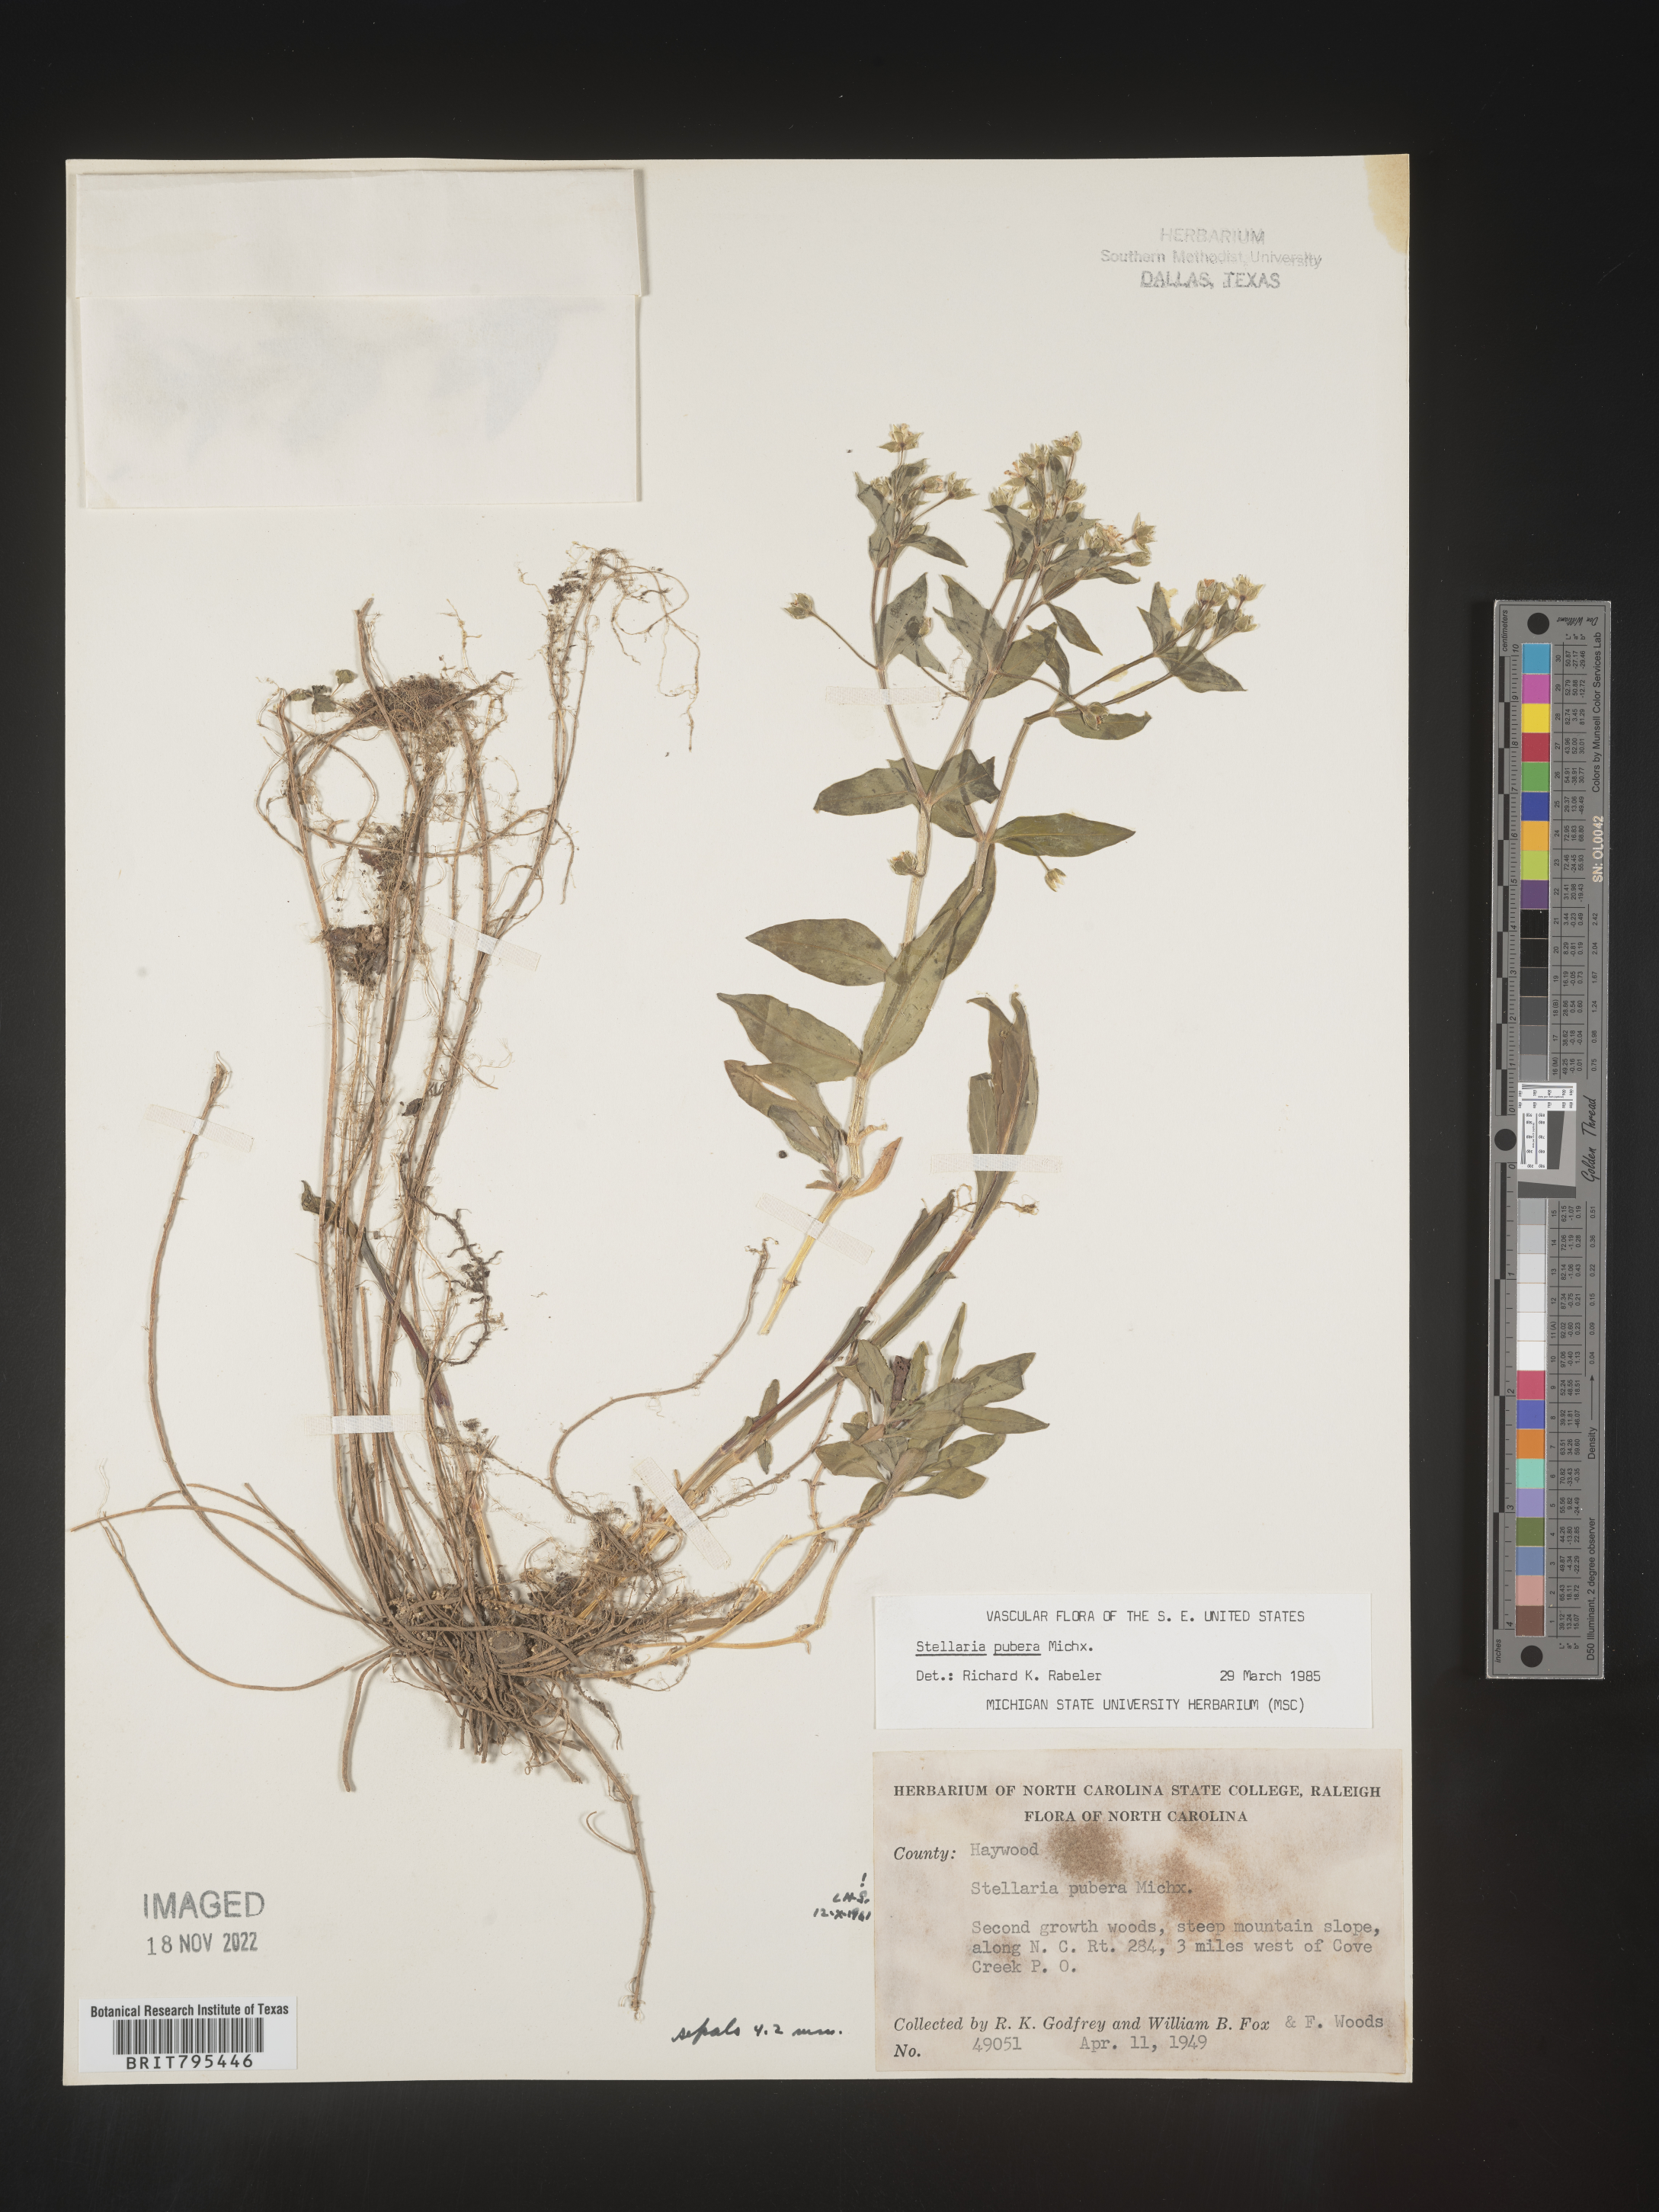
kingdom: Plantae
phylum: Tracheophyta
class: Magnoliopsida
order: Caryophyllales
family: Caryophyllaceae
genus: Stellaria
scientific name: Stellaria pubera
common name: Star chickweed
